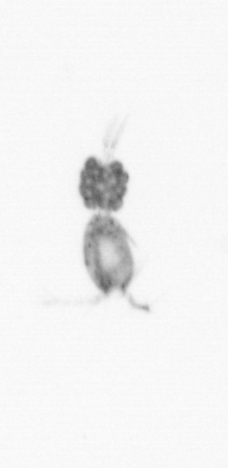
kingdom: Animalia
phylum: Arthropoda
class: Copepoda
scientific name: Copepoda
